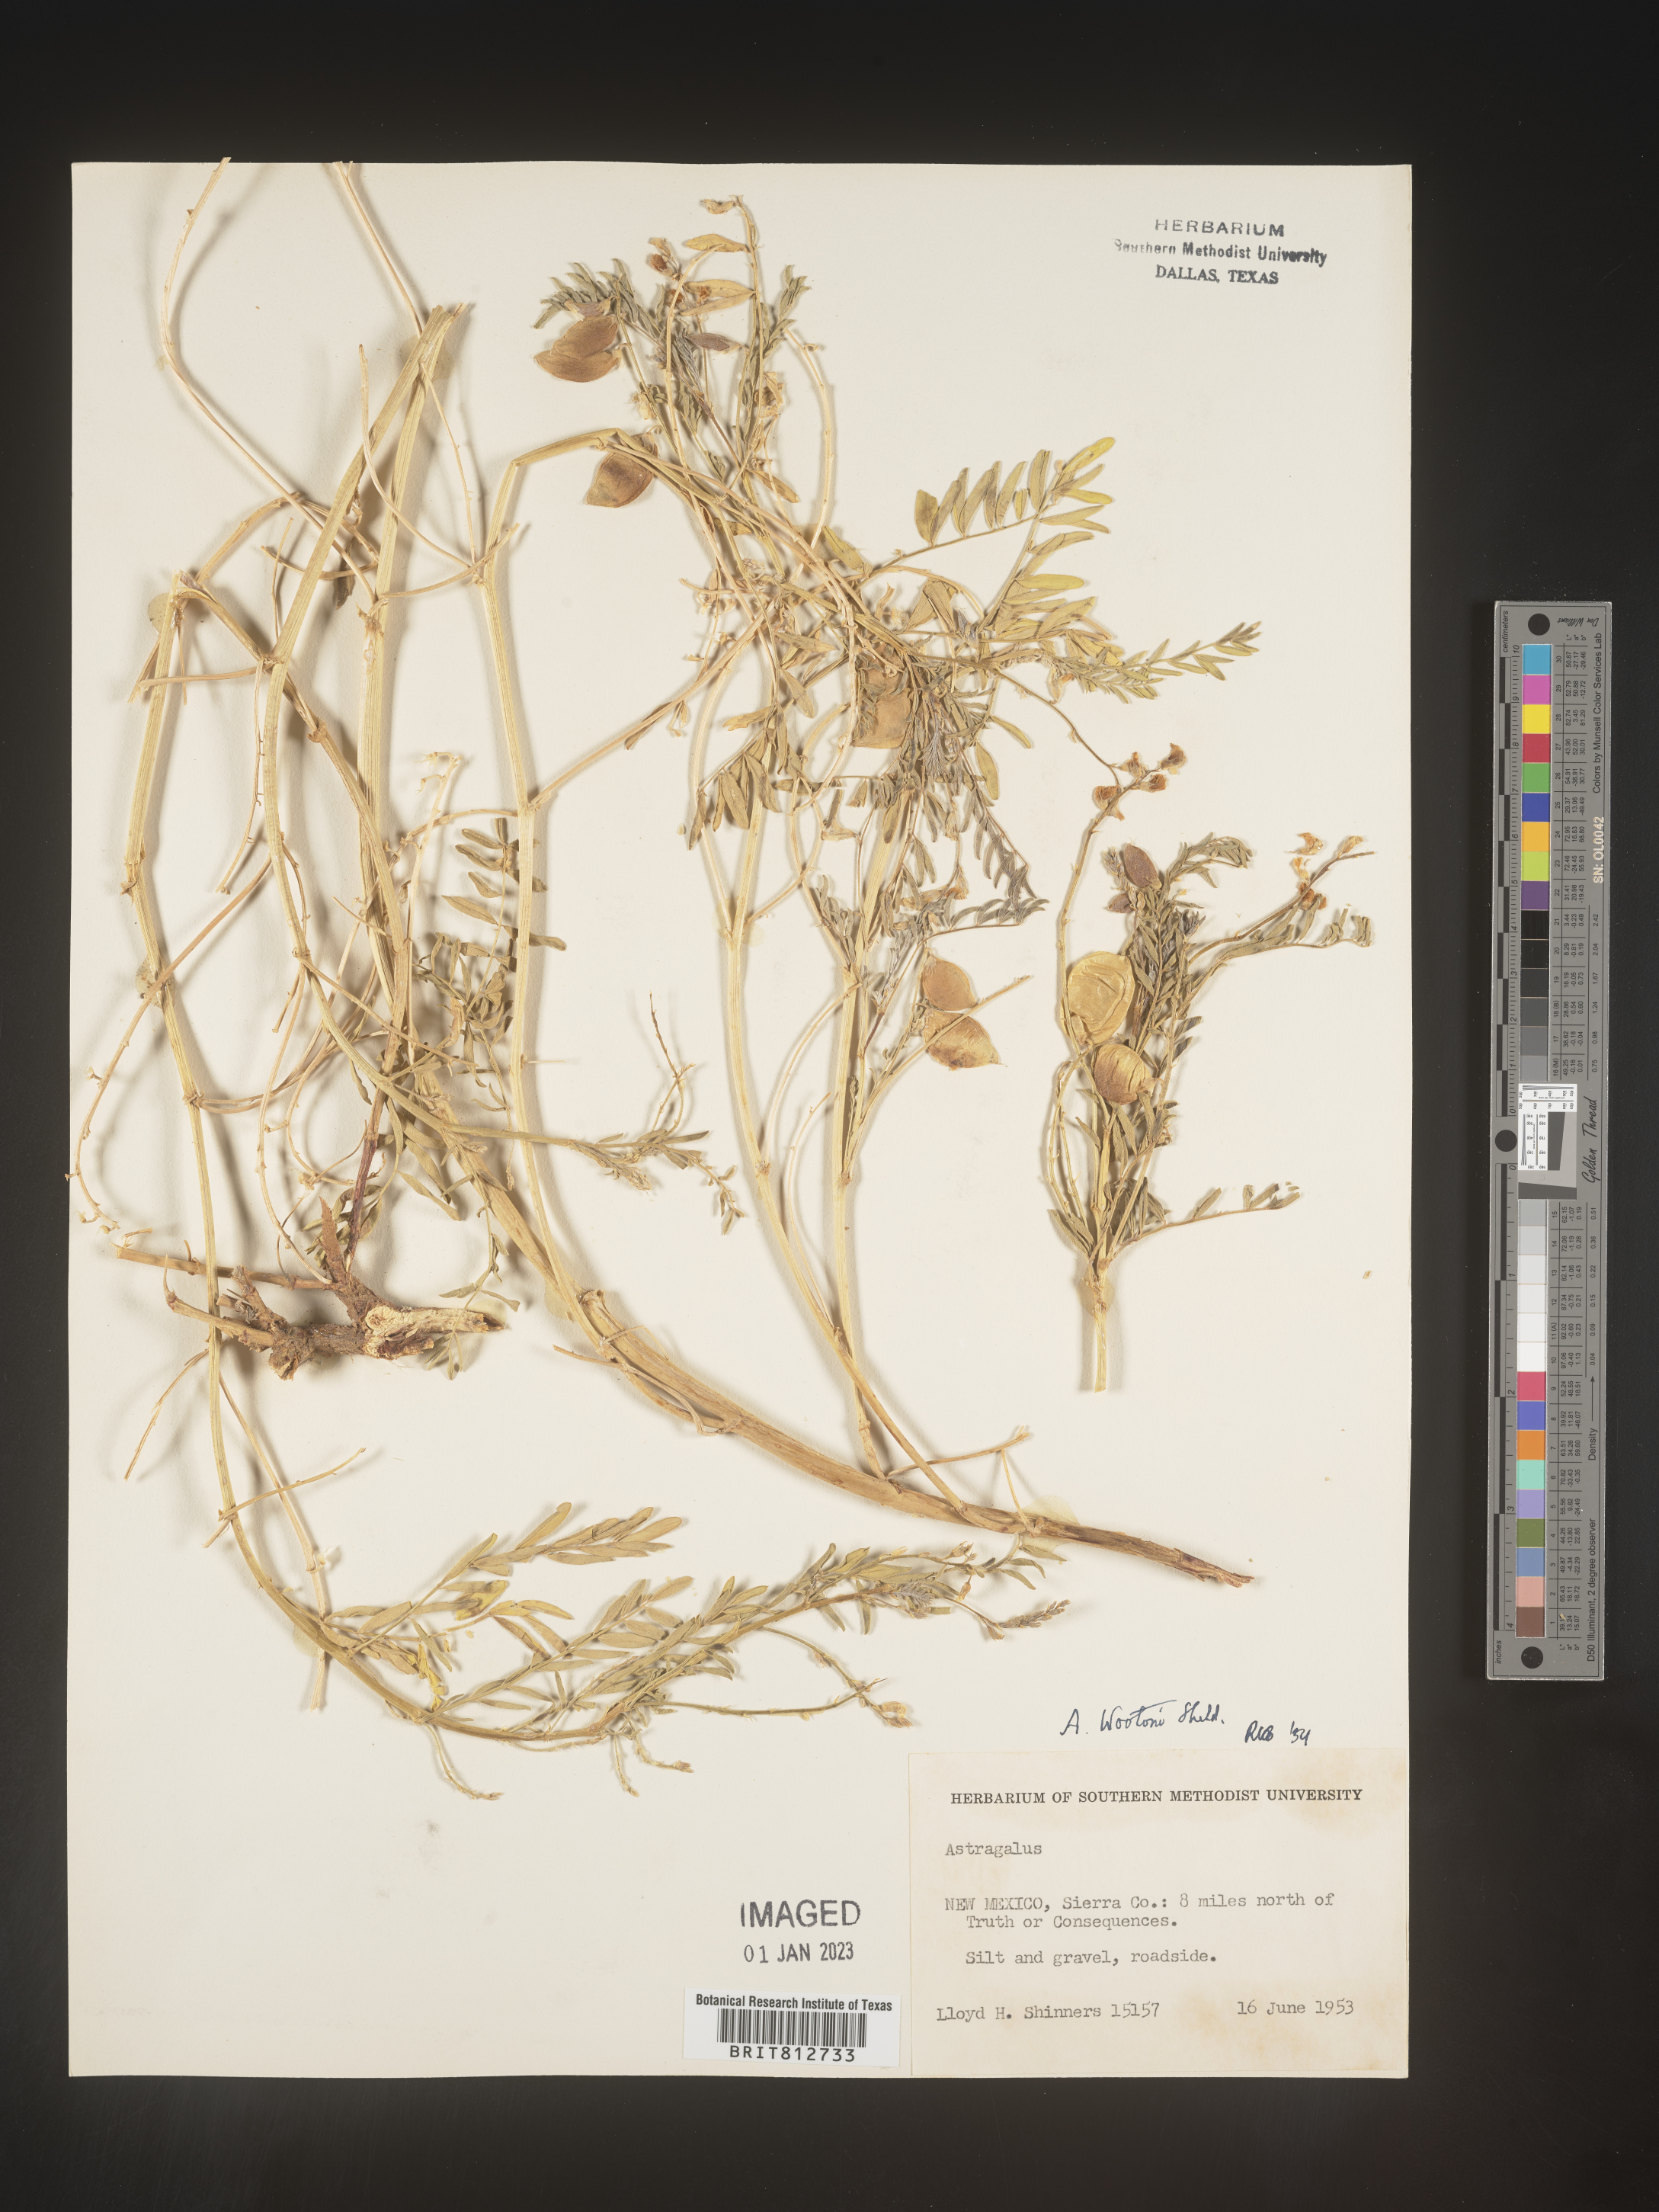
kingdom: Plantae
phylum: Tracheophyta
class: Magnoliopsida
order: Fabales
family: Fabaceae
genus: Astragalus
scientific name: Astragalus wootonii
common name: Wooton's milk-vetch
